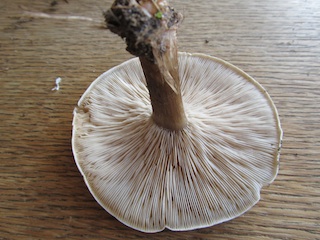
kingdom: Fungi
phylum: Basidiomycota
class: Agaricomycetes
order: Agaricales
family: Tricholomataceae
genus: Melanoleuca
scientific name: Melanoleuca exscissa
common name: gusten munkehat
